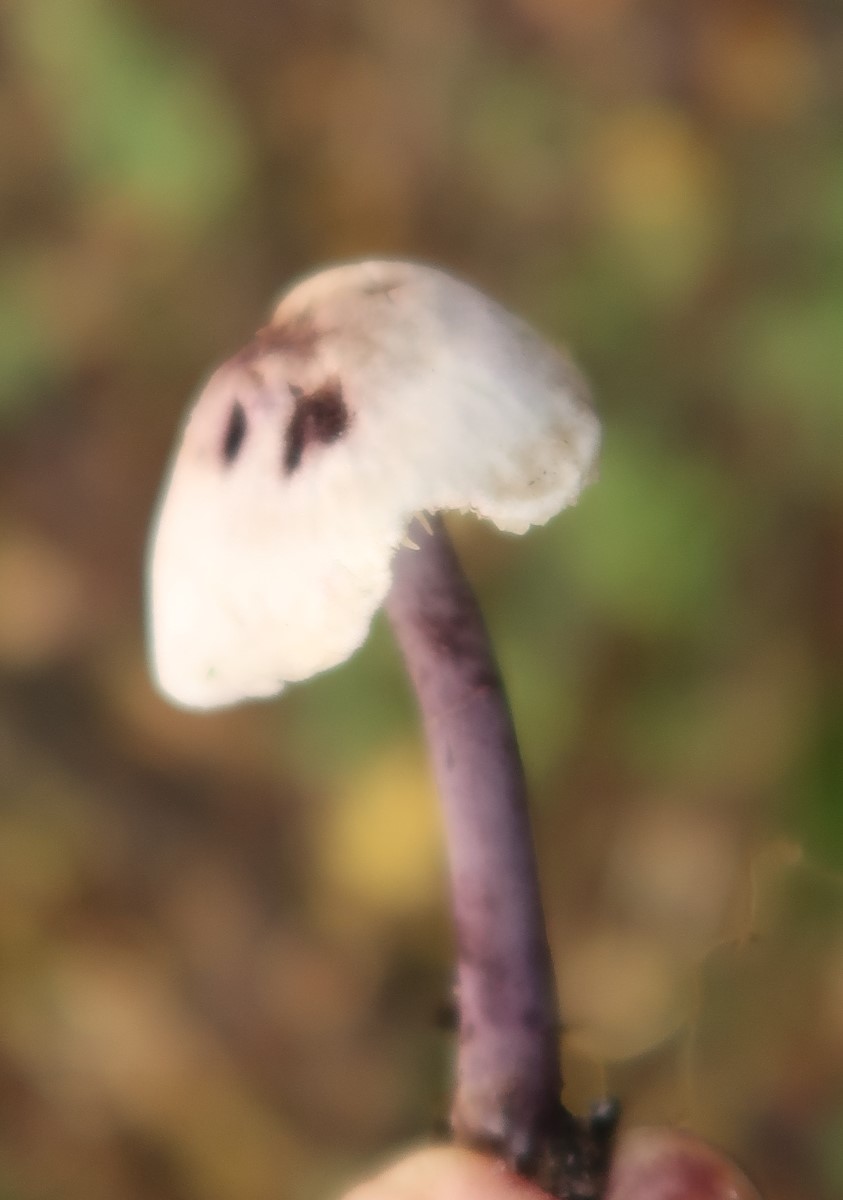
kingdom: Fungi
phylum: Basidiomycota
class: Agaricomycetes
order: Agaricales
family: Agaricaceae
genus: Cystolepiota
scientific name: Cystolepiota bucknallii
